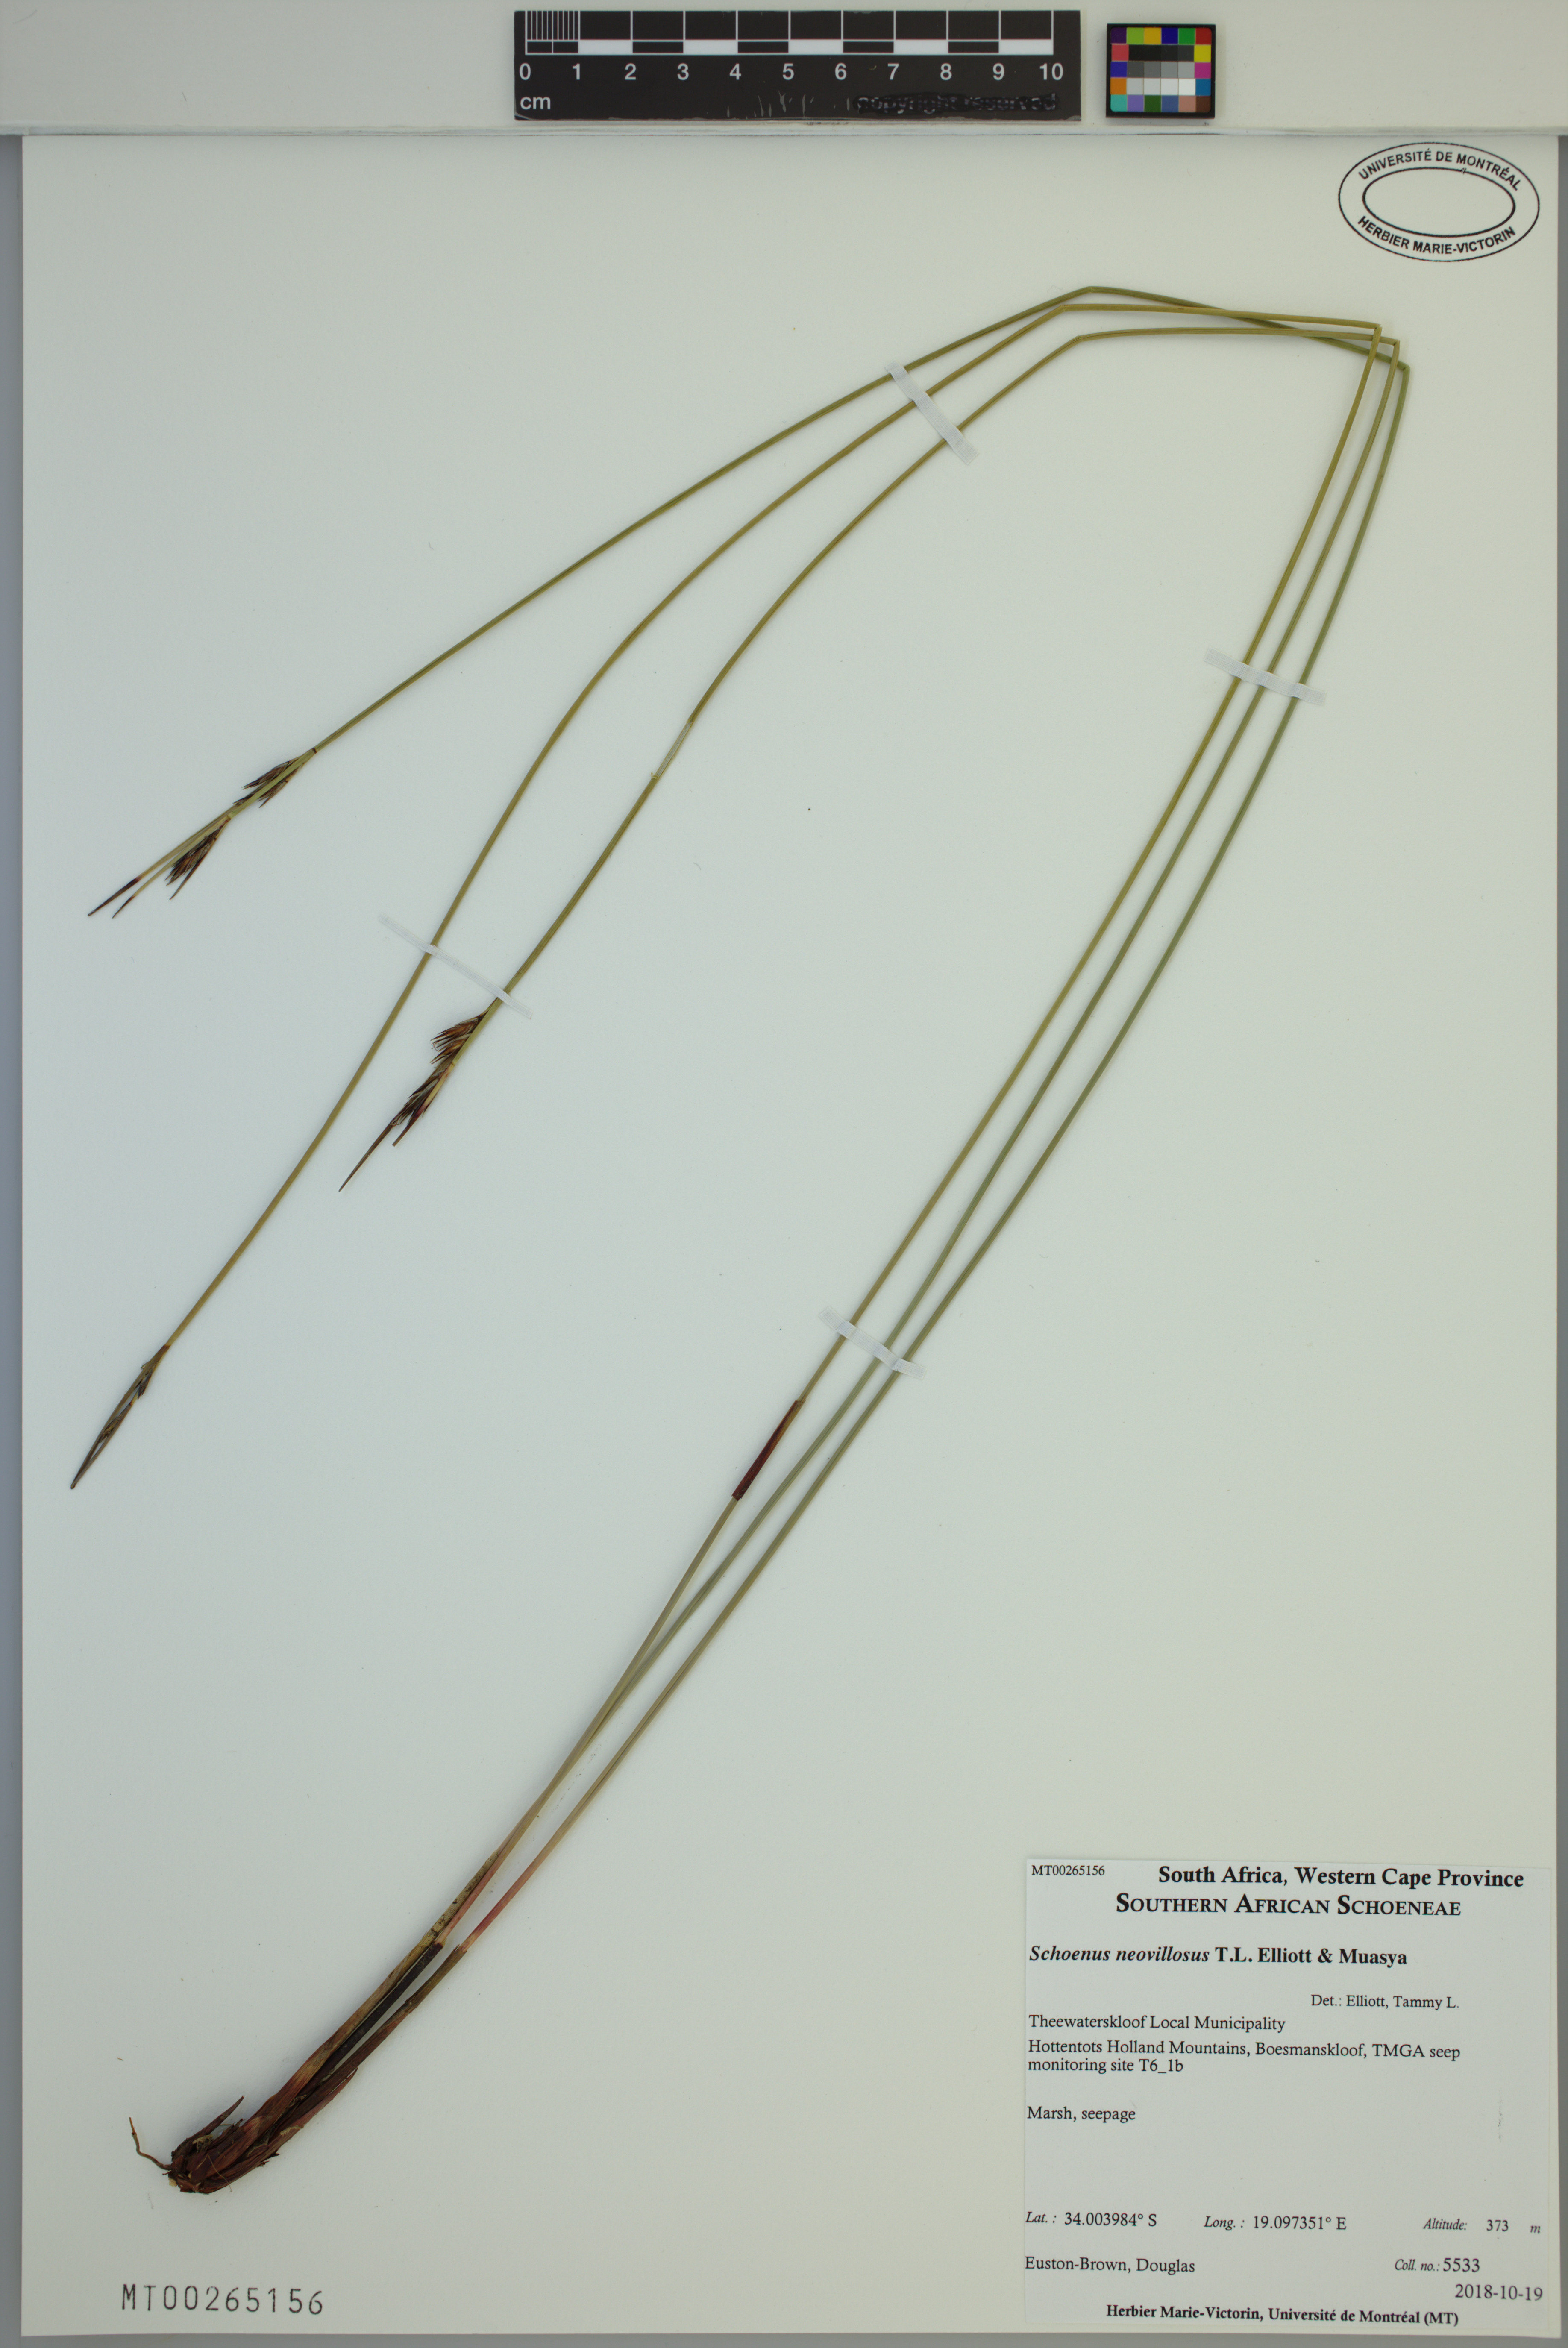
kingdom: Plantae
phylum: Tracheophyta
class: Liliopsida
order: Poales
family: Cyperaceae
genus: Schoenus
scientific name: Schoenus neovillosus
